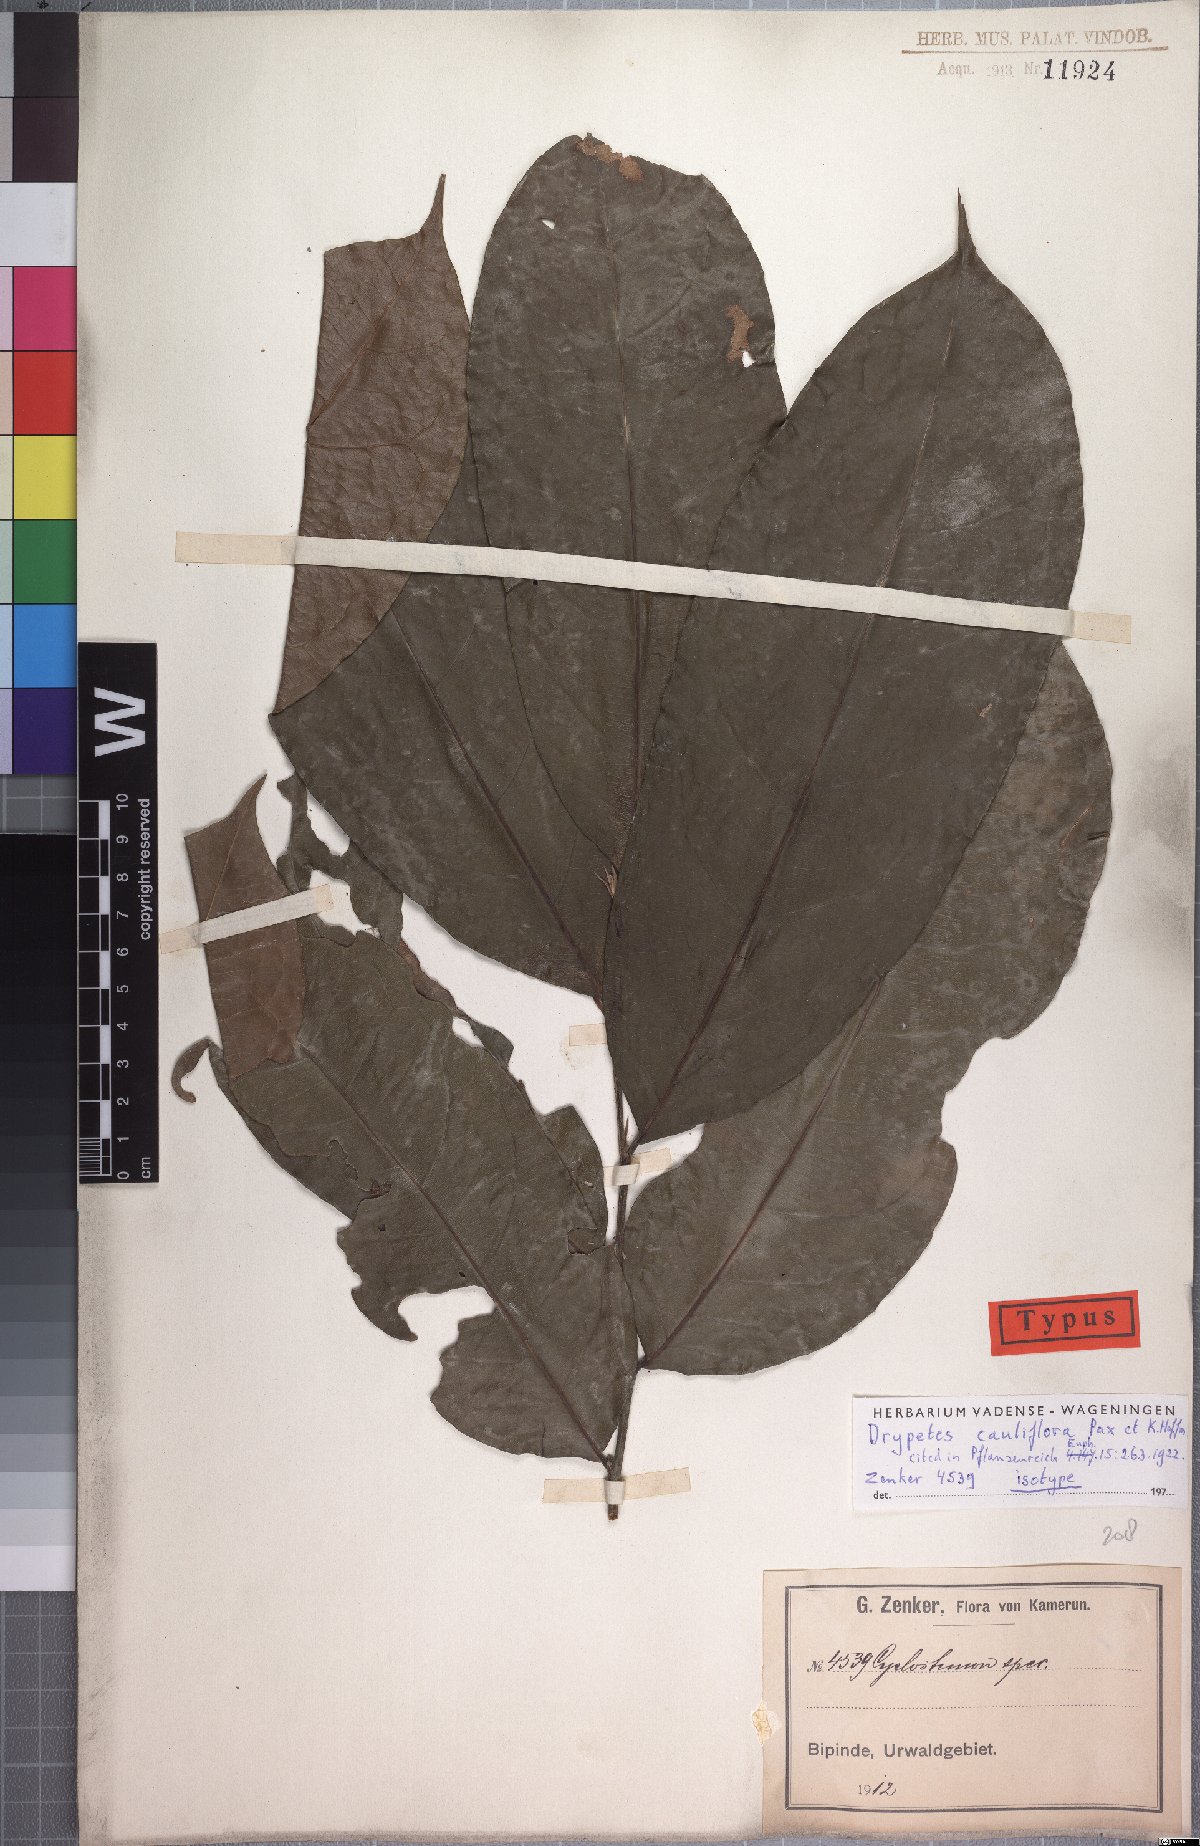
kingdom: Plantae
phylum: Tracheophyta
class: Magnoliopsida
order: Malpighiales
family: Putranjivaceae
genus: Drypetes
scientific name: Drypetes stipularis
